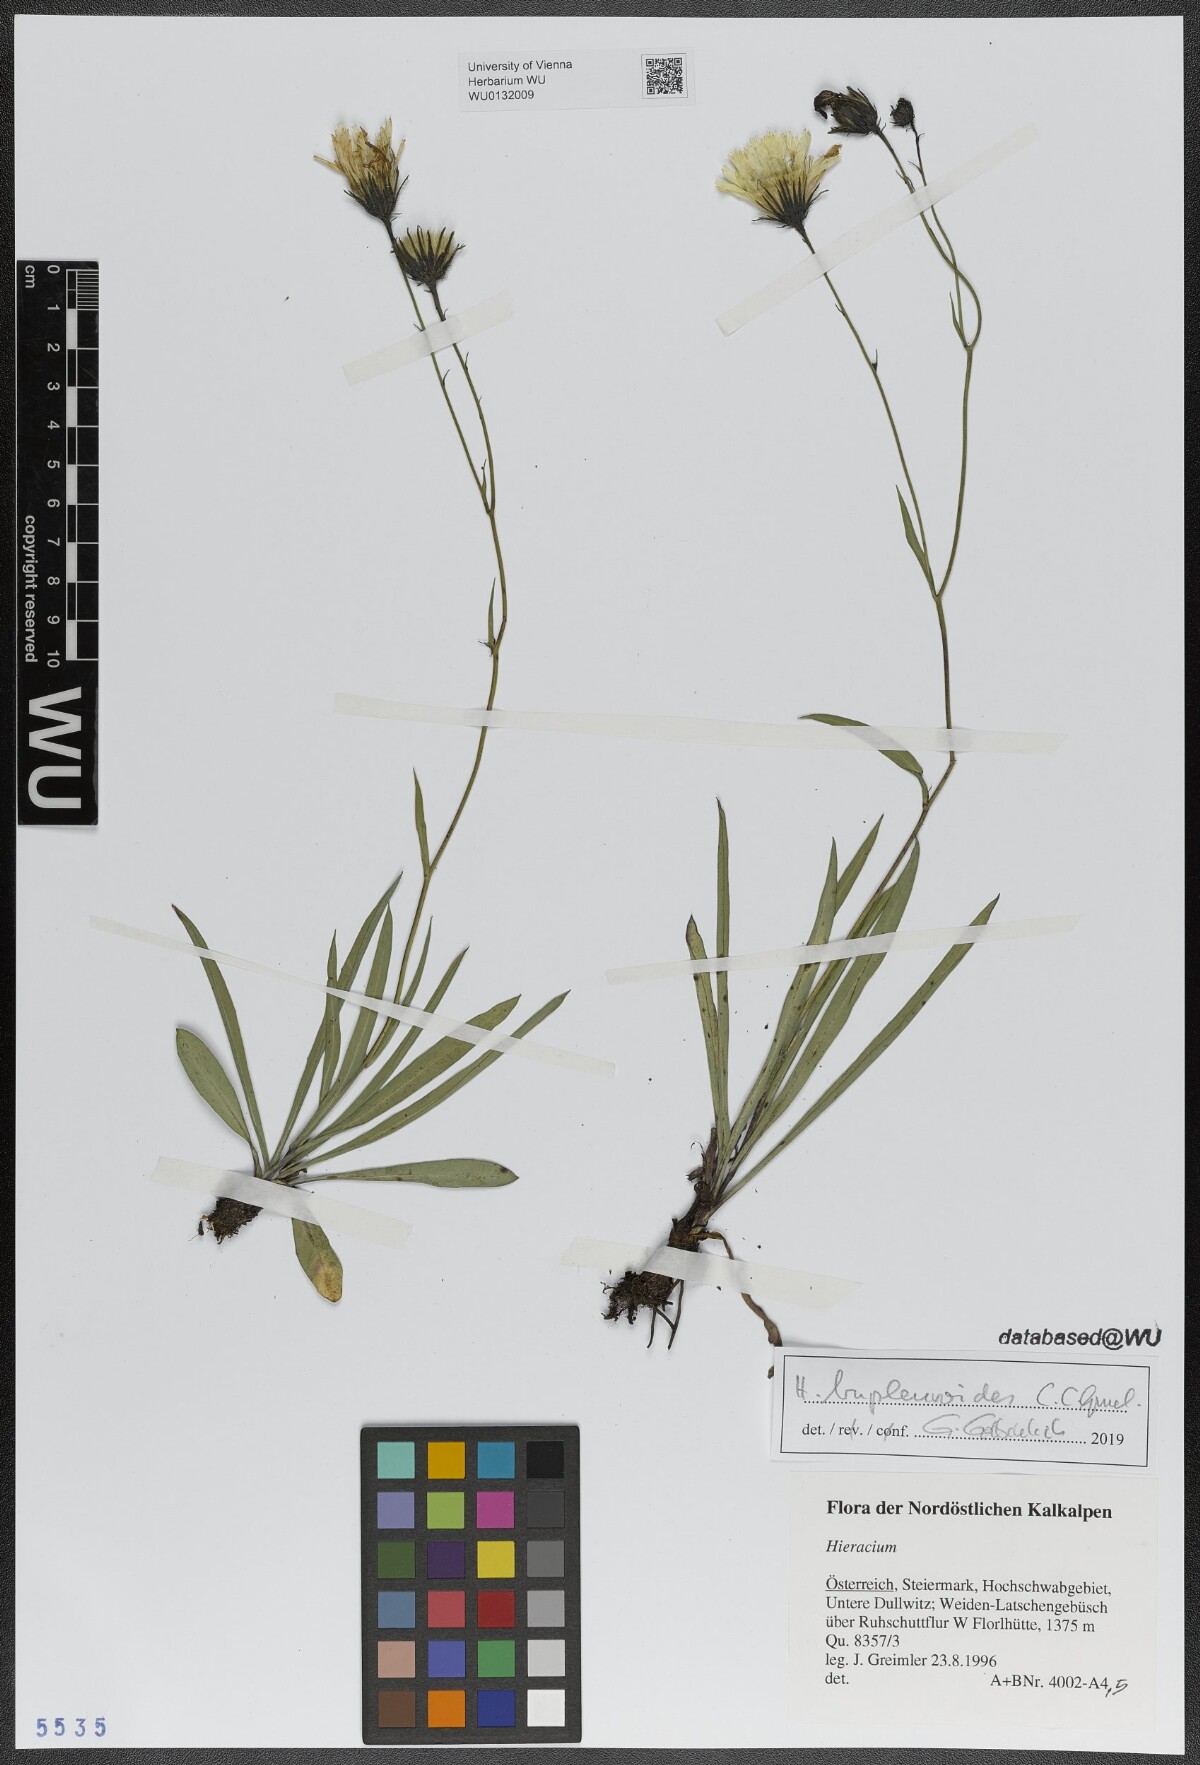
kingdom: Plantae
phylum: Tracheophyta
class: Magnoliopsida
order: Asterales
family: Asteraceae
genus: Hieracium
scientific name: Hieracium bupleuroides
